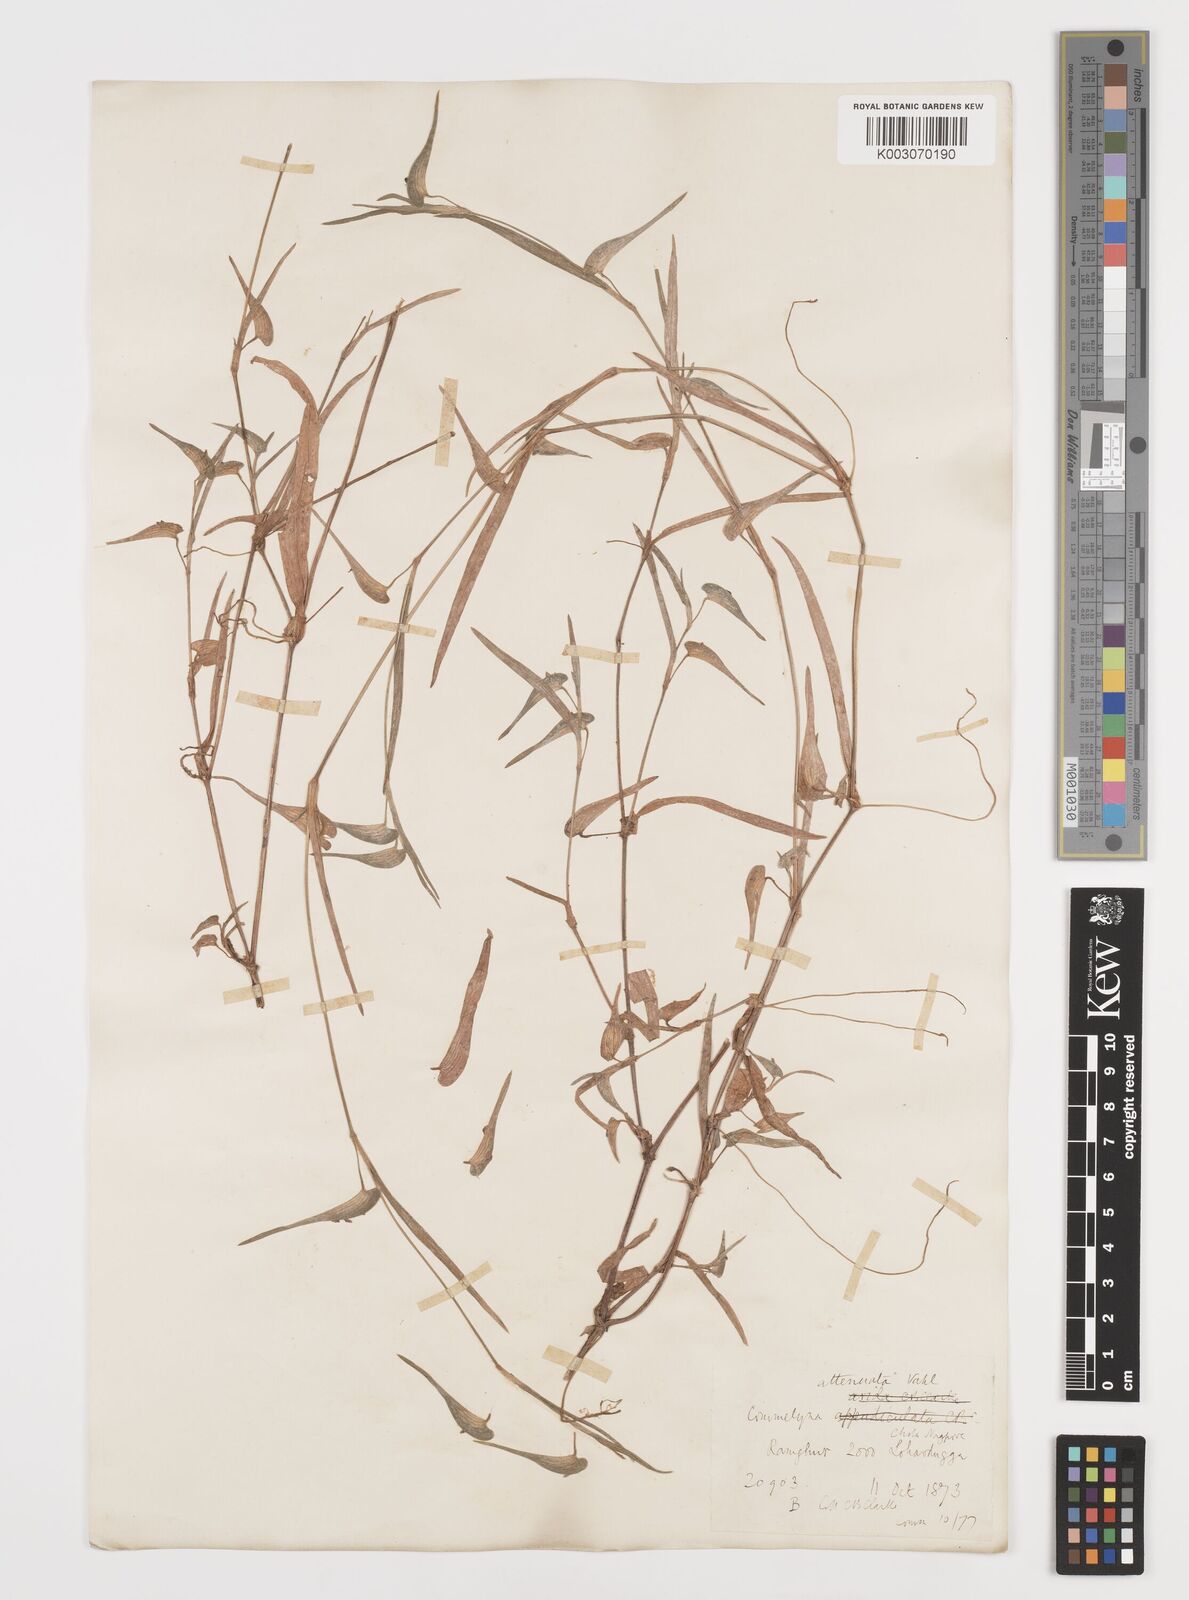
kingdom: Plantae
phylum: Tracheophyta
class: Liliopsida
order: Commelinales
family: Commelinaceae
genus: Commelina
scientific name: Commelina attenuata
